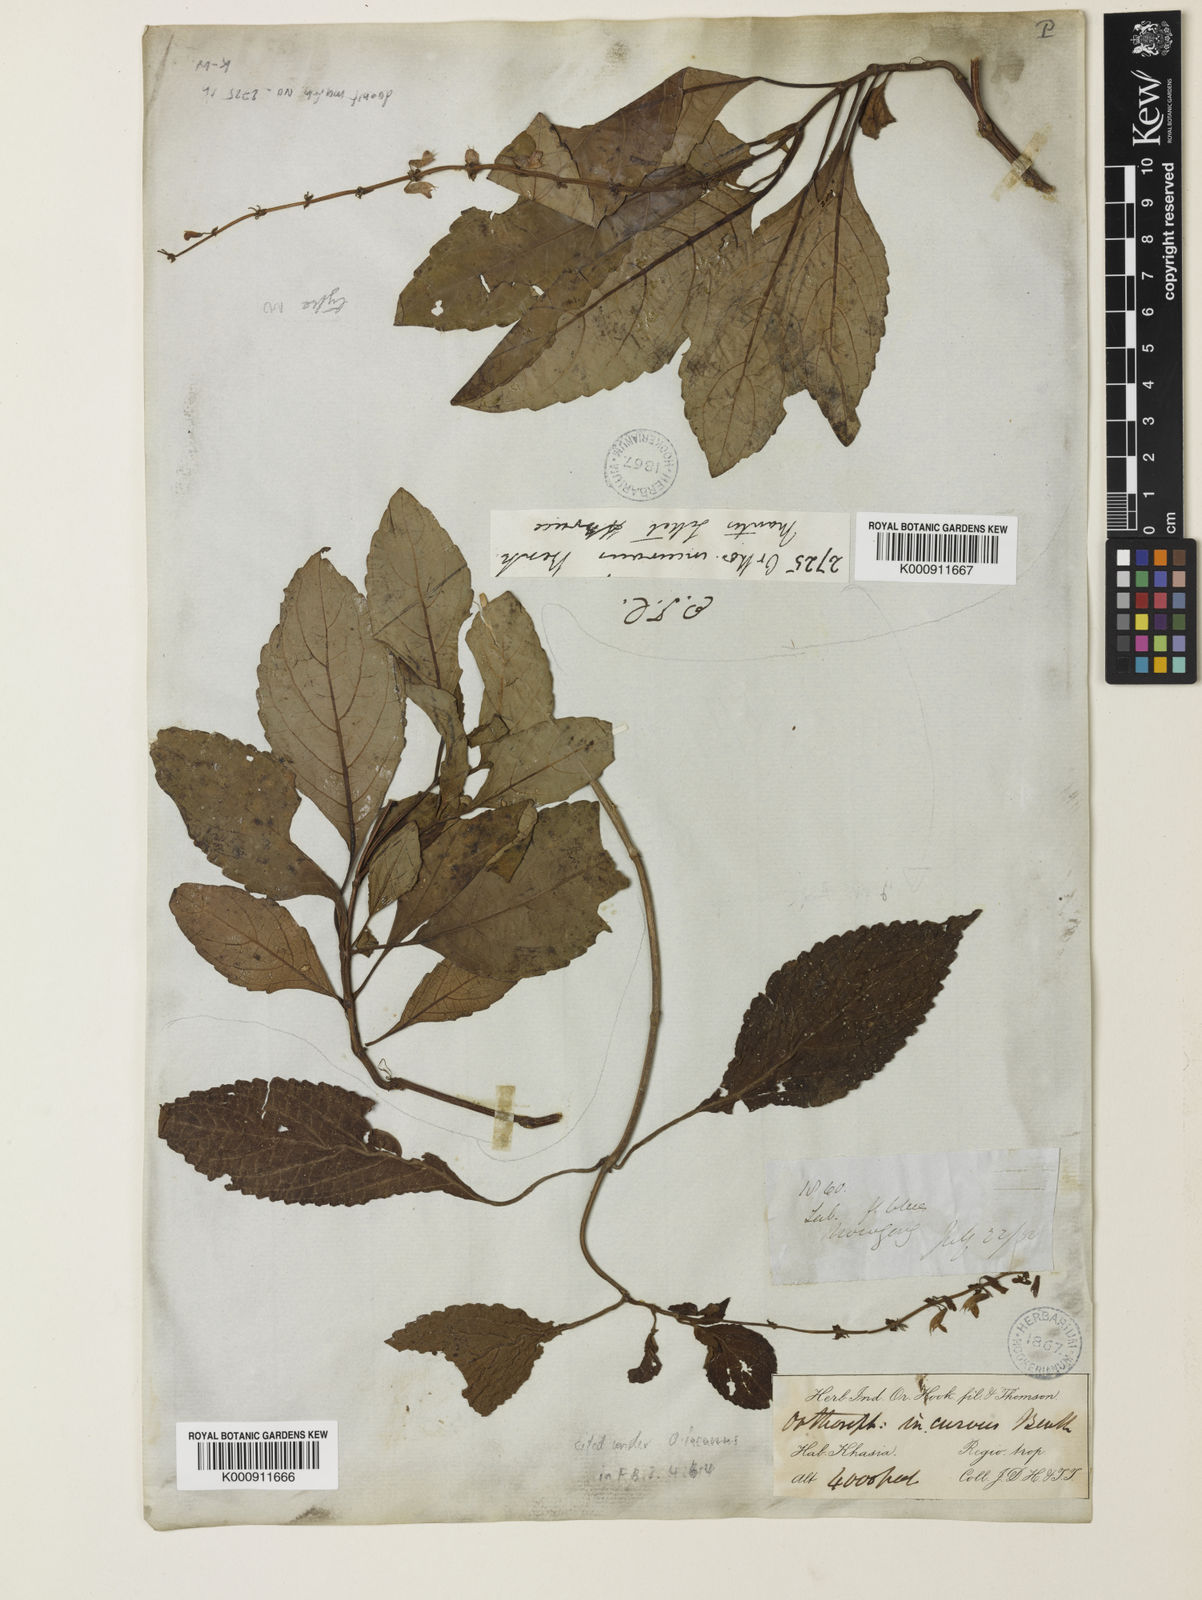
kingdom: Plantae
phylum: Tracheophyta
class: Magnoliopsida
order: Lamiales
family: Lamiaceae
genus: Orthosiphon
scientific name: Orthosiphon incurvus
